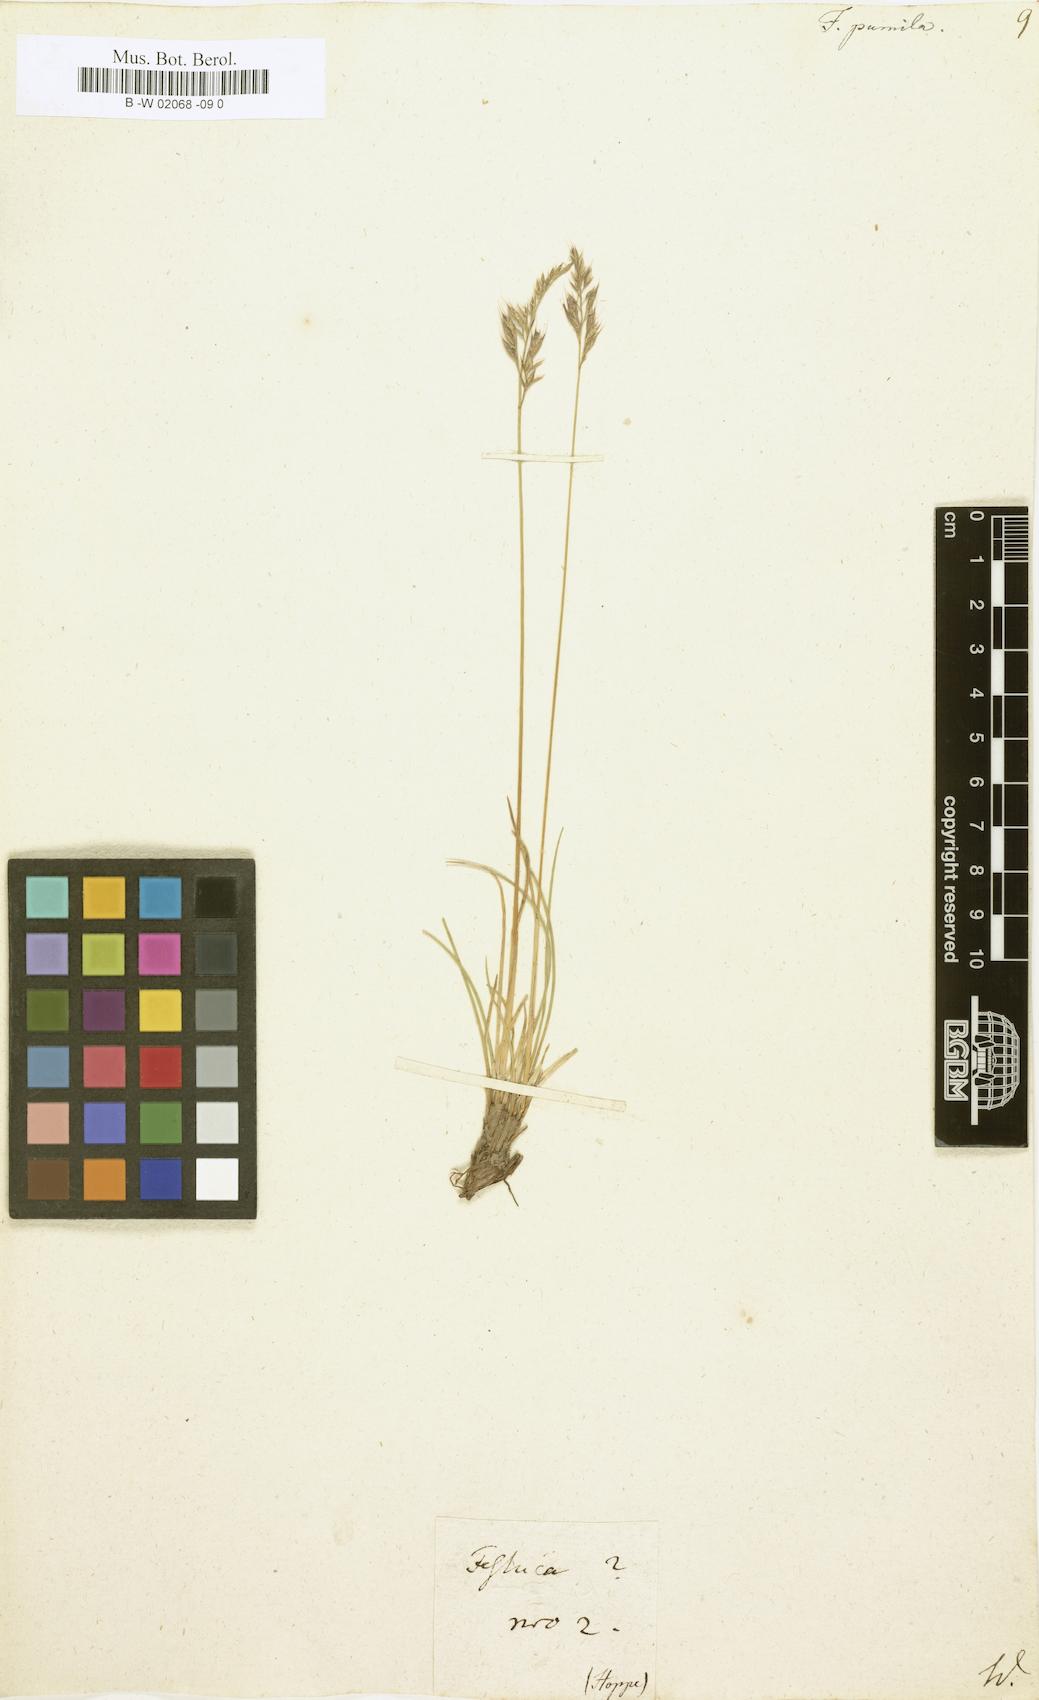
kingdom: Plantae
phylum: Tracheophyta
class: Liliopsida
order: Poales
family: Poaceae
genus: Festuca
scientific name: Festuca
